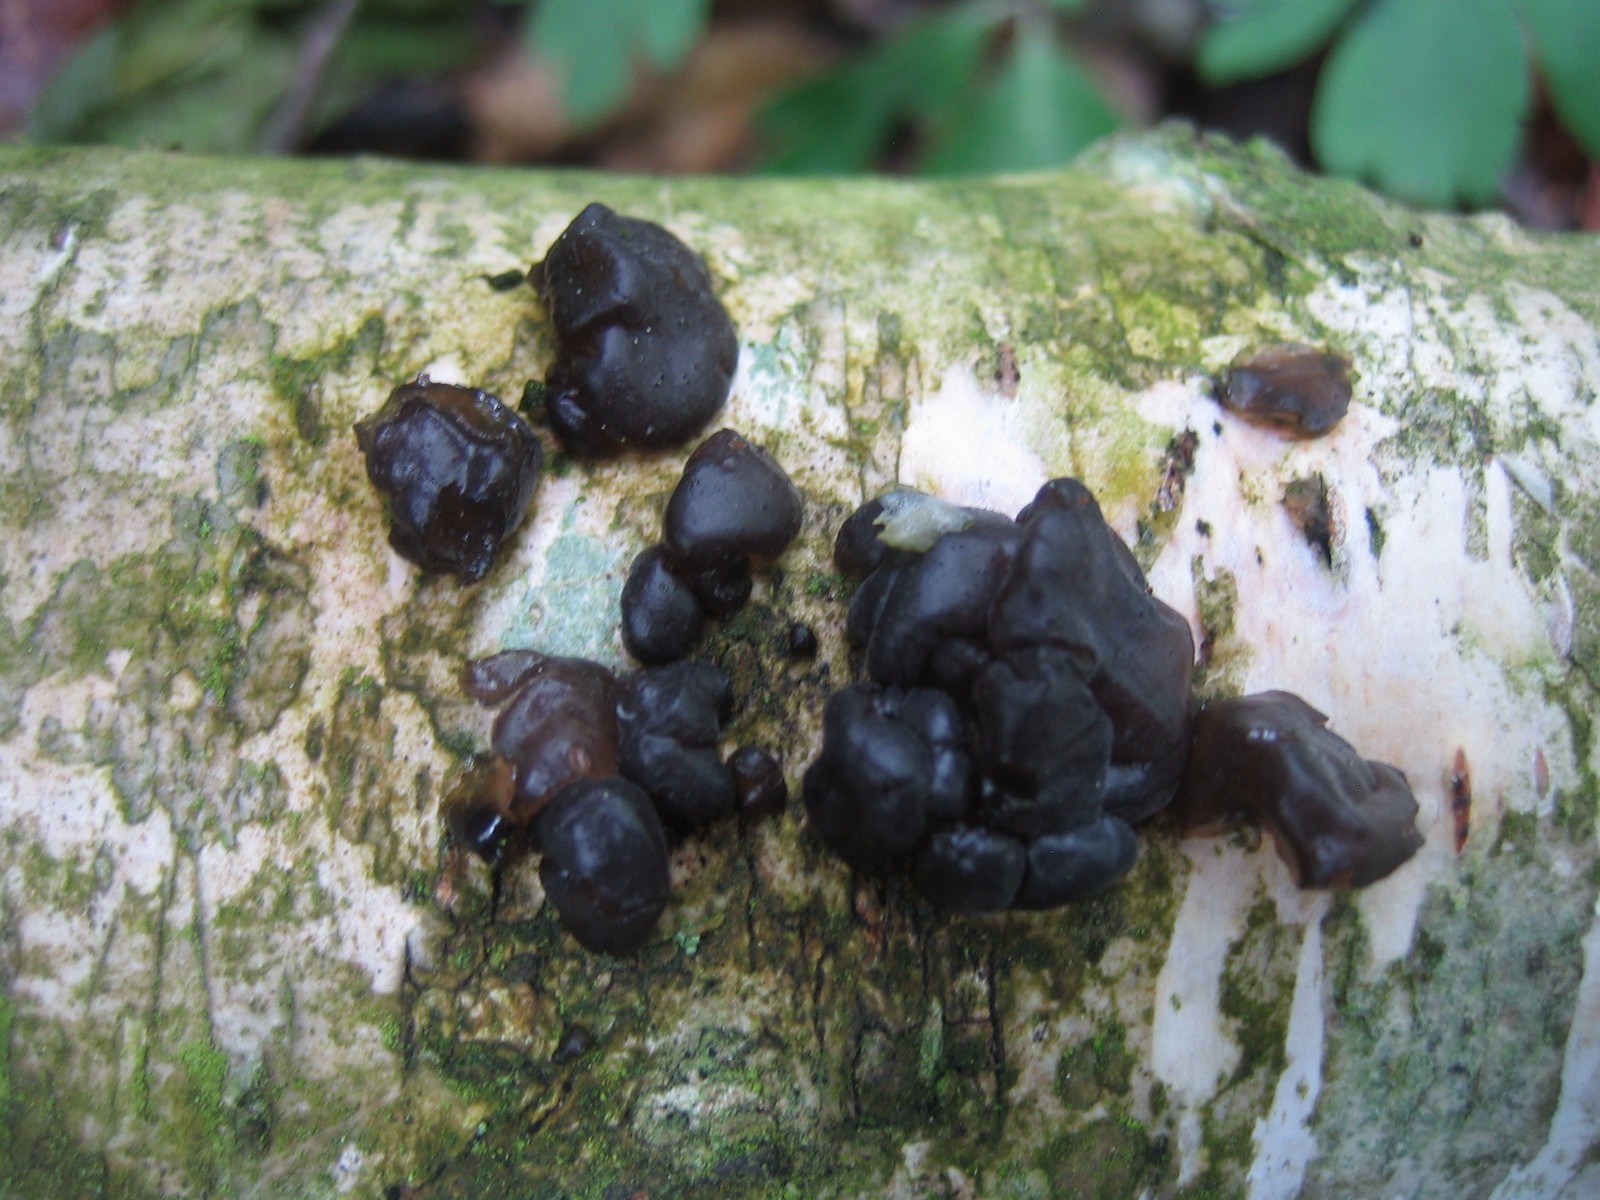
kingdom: Fungi
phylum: Basidiomycota
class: Agaricomycetes
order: Auriculariales
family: Auriculariaceae
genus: Exidia
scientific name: Exidia nigricans
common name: almindelig bævretop
